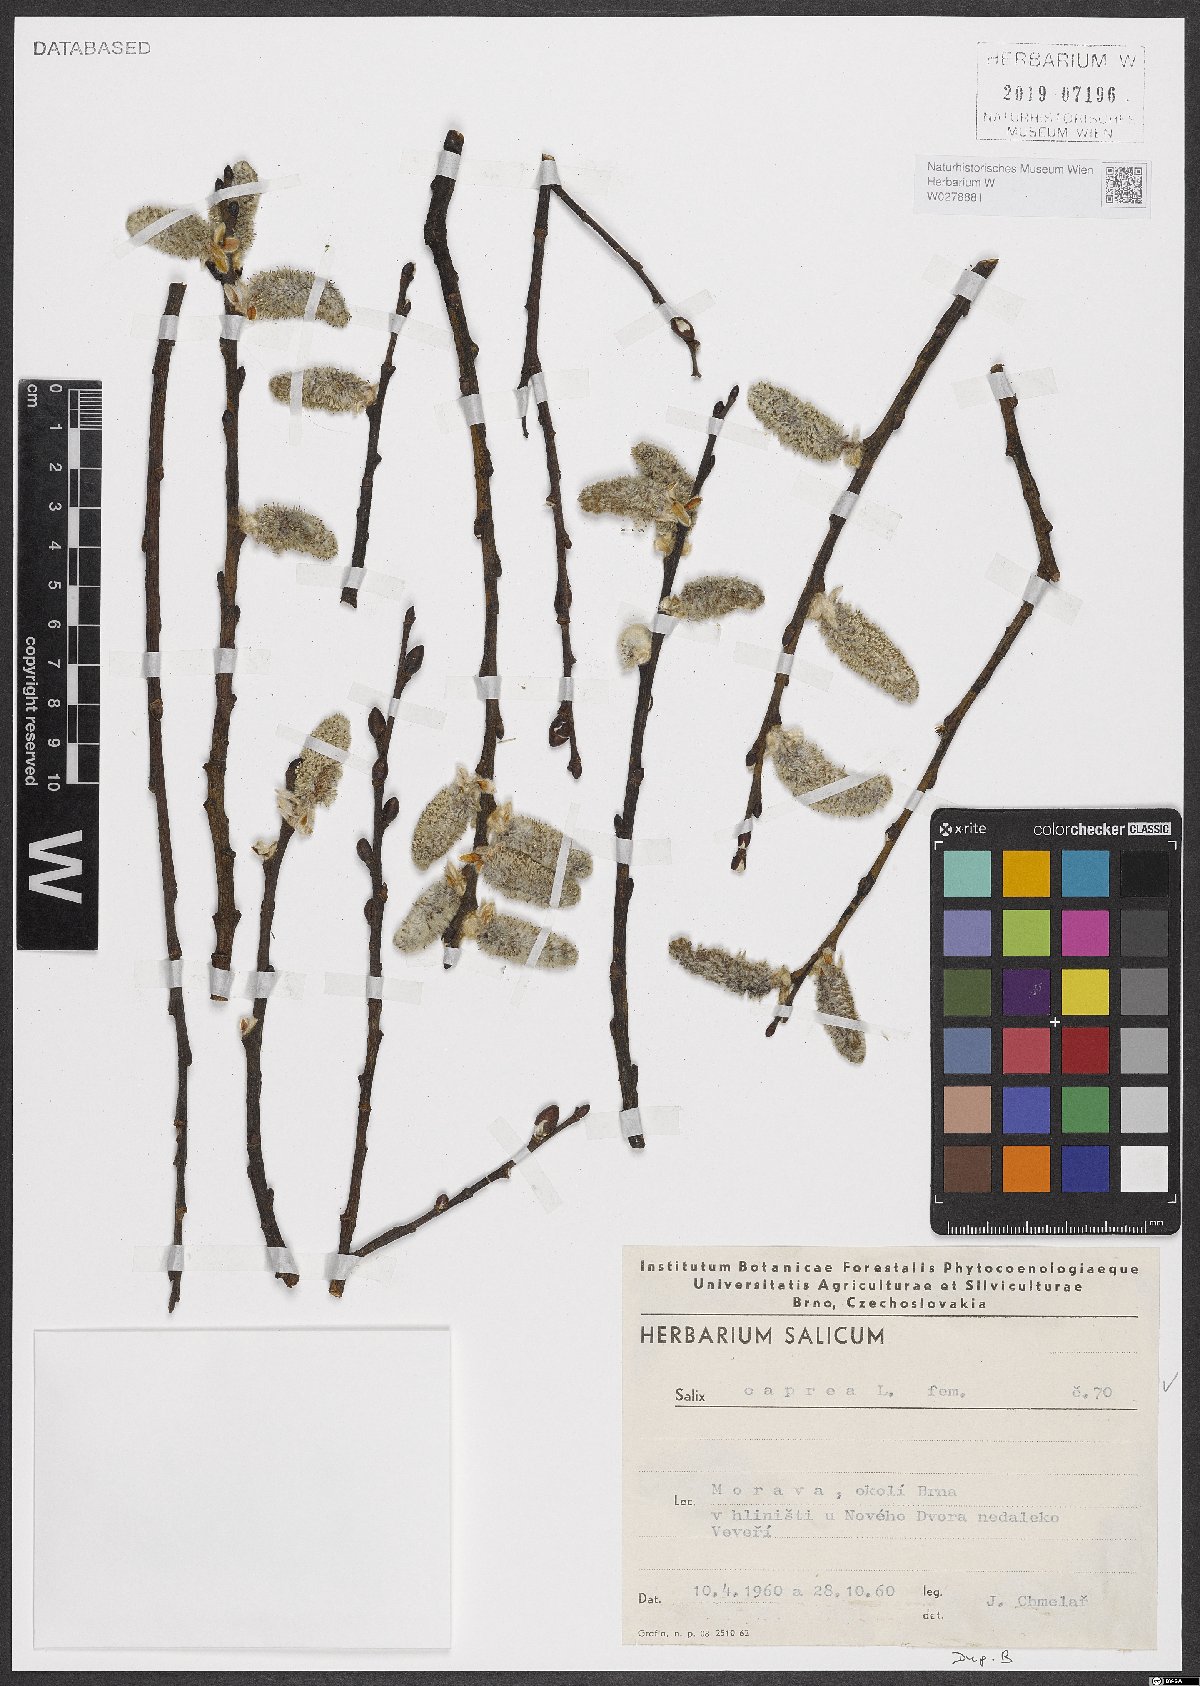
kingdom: Plantae
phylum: Tracheophyta
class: Magnoliopsida
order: Malpighiales
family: Salicaceae
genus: Salix
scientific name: Salix caprea
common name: Goat willow
